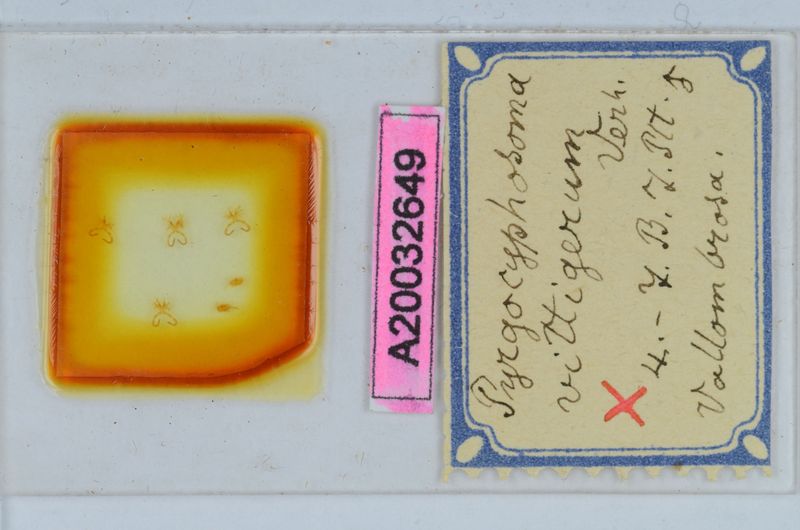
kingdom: Animalia
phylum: Arthropoda
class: Diplopoda
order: Chordeumatida
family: Craspedosomatidae
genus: Pyrgocyphosoma
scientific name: Pyrgocyphosoma vallombrosae
